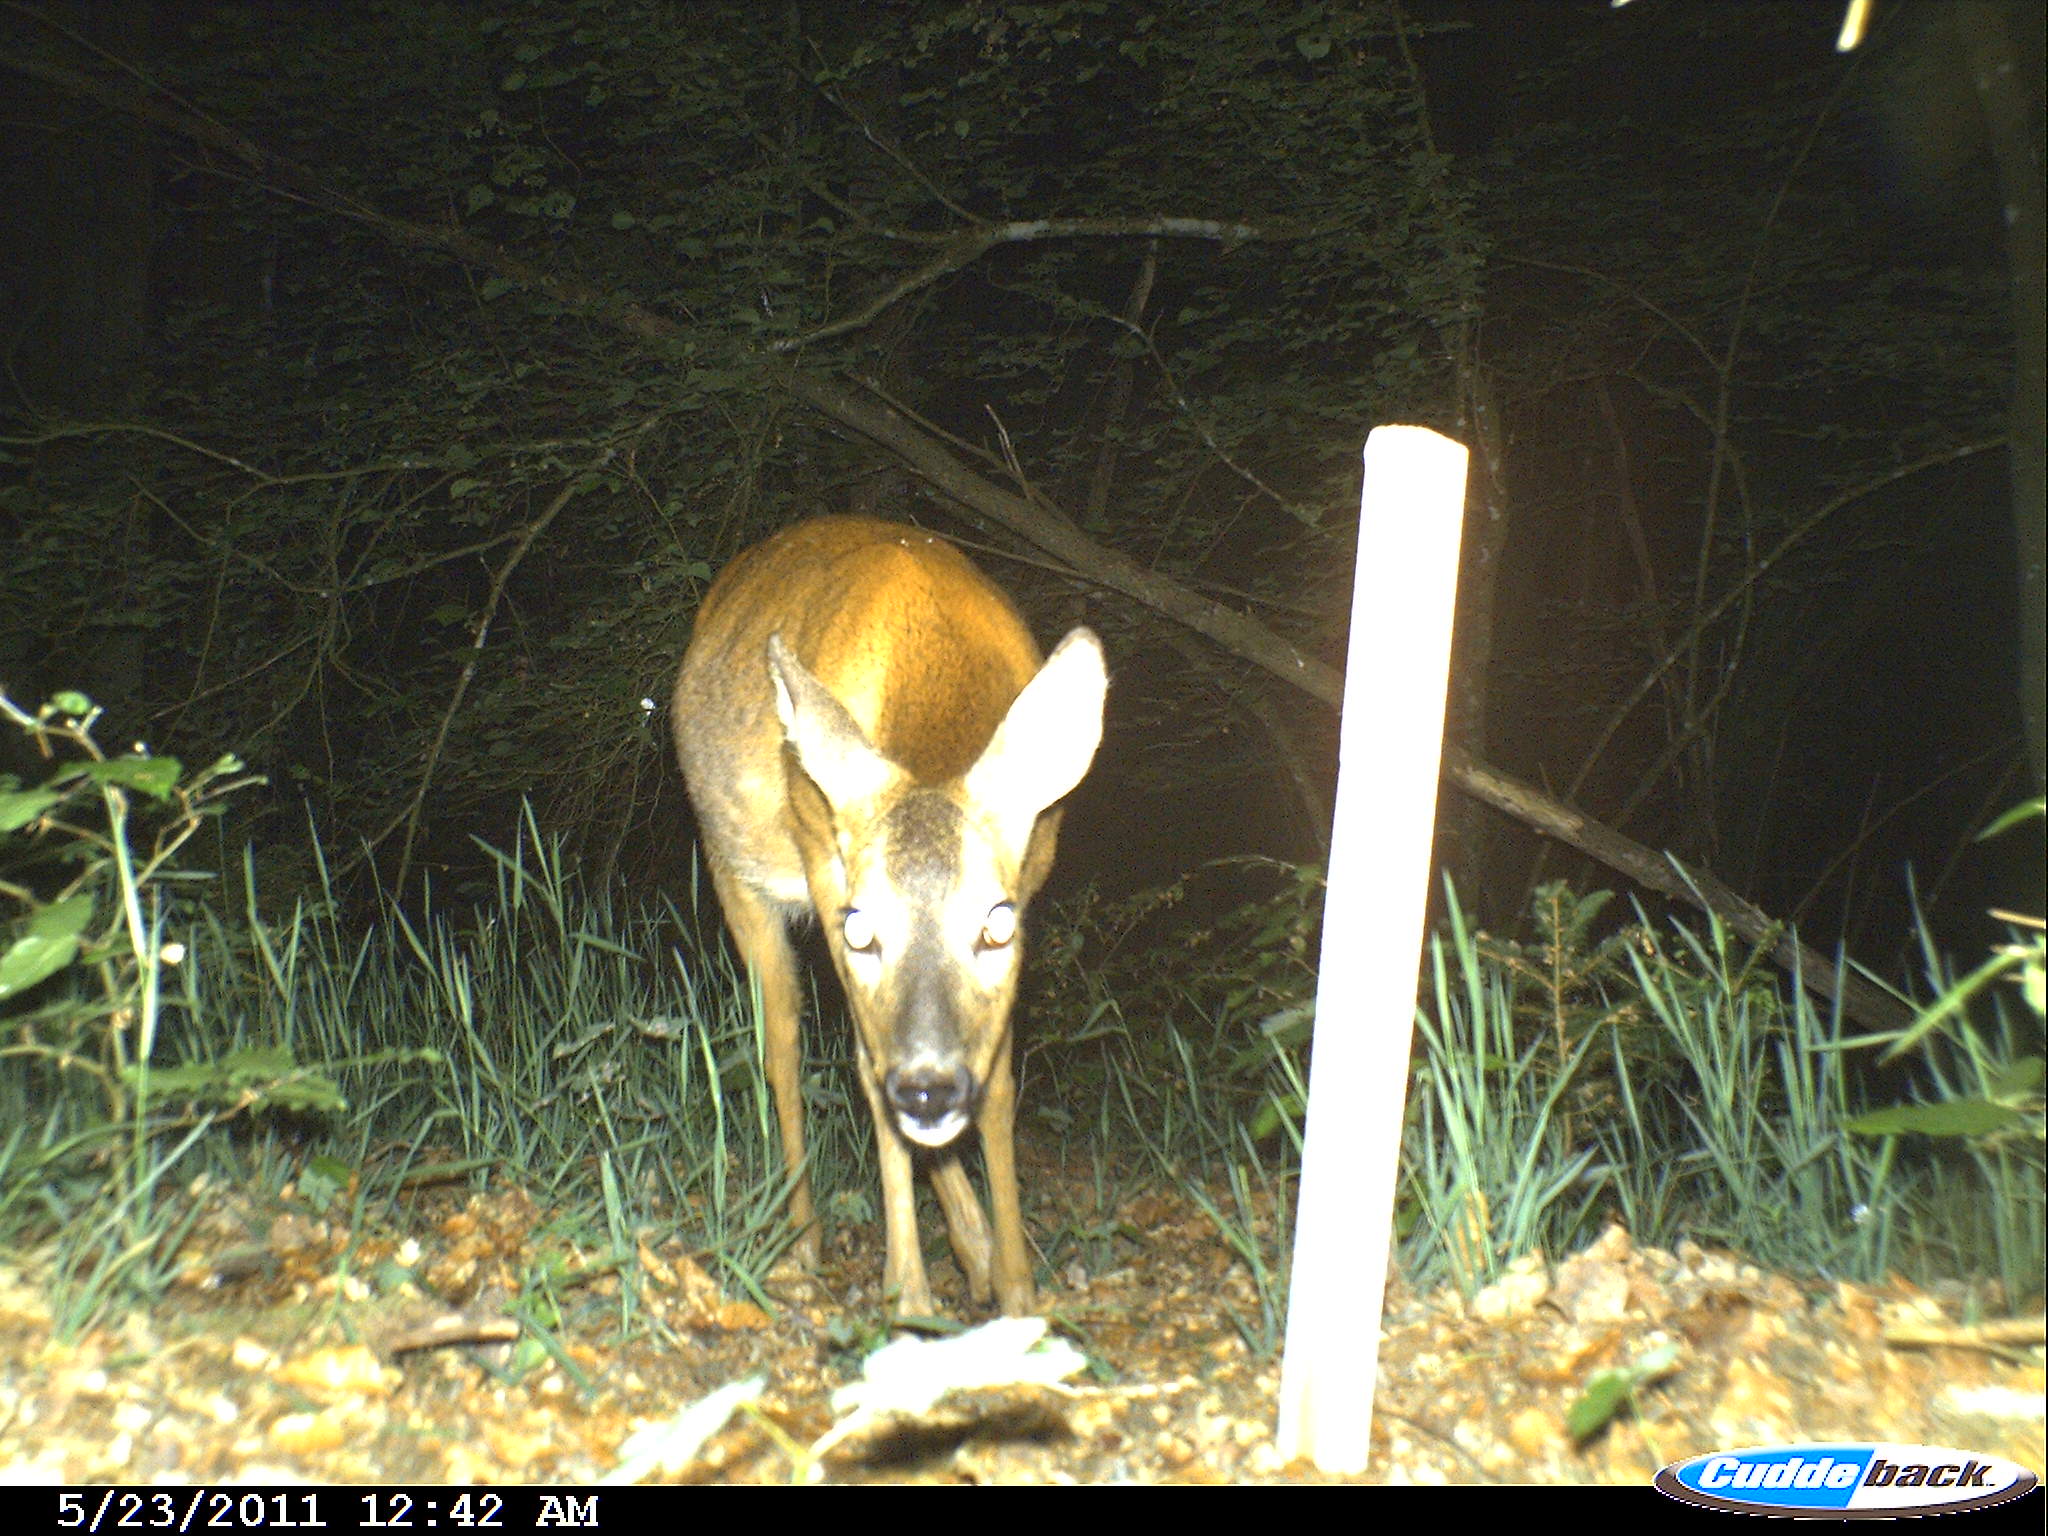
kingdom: Animalia
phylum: Chordata
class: Mammalia
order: Artiodactyla
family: Cervidae
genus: Capreolus
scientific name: Capreolus capreolus
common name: Western roe deer
